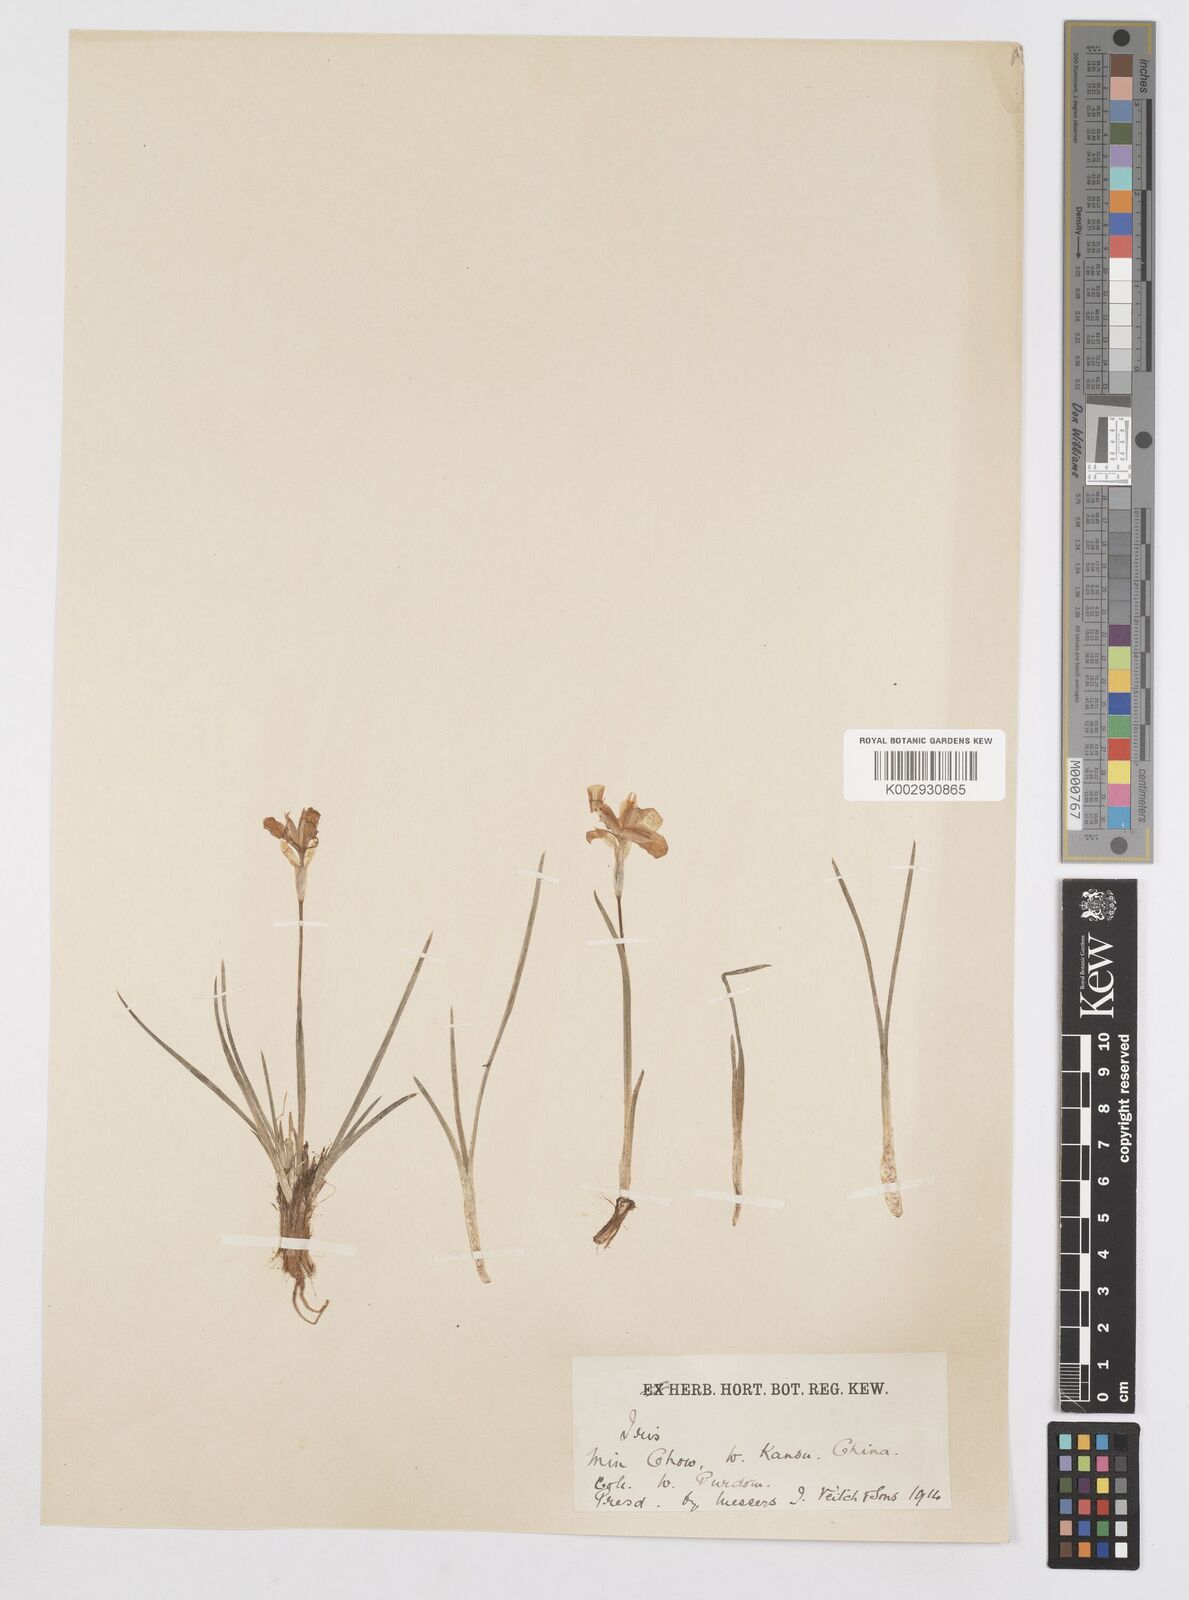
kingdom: Plantae
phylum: Tracheophyta
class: Liliopsida
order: Asparagales
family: Iridaceae
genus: Iris
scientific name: Iris goniocarpa
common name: Angular-fruit iris
